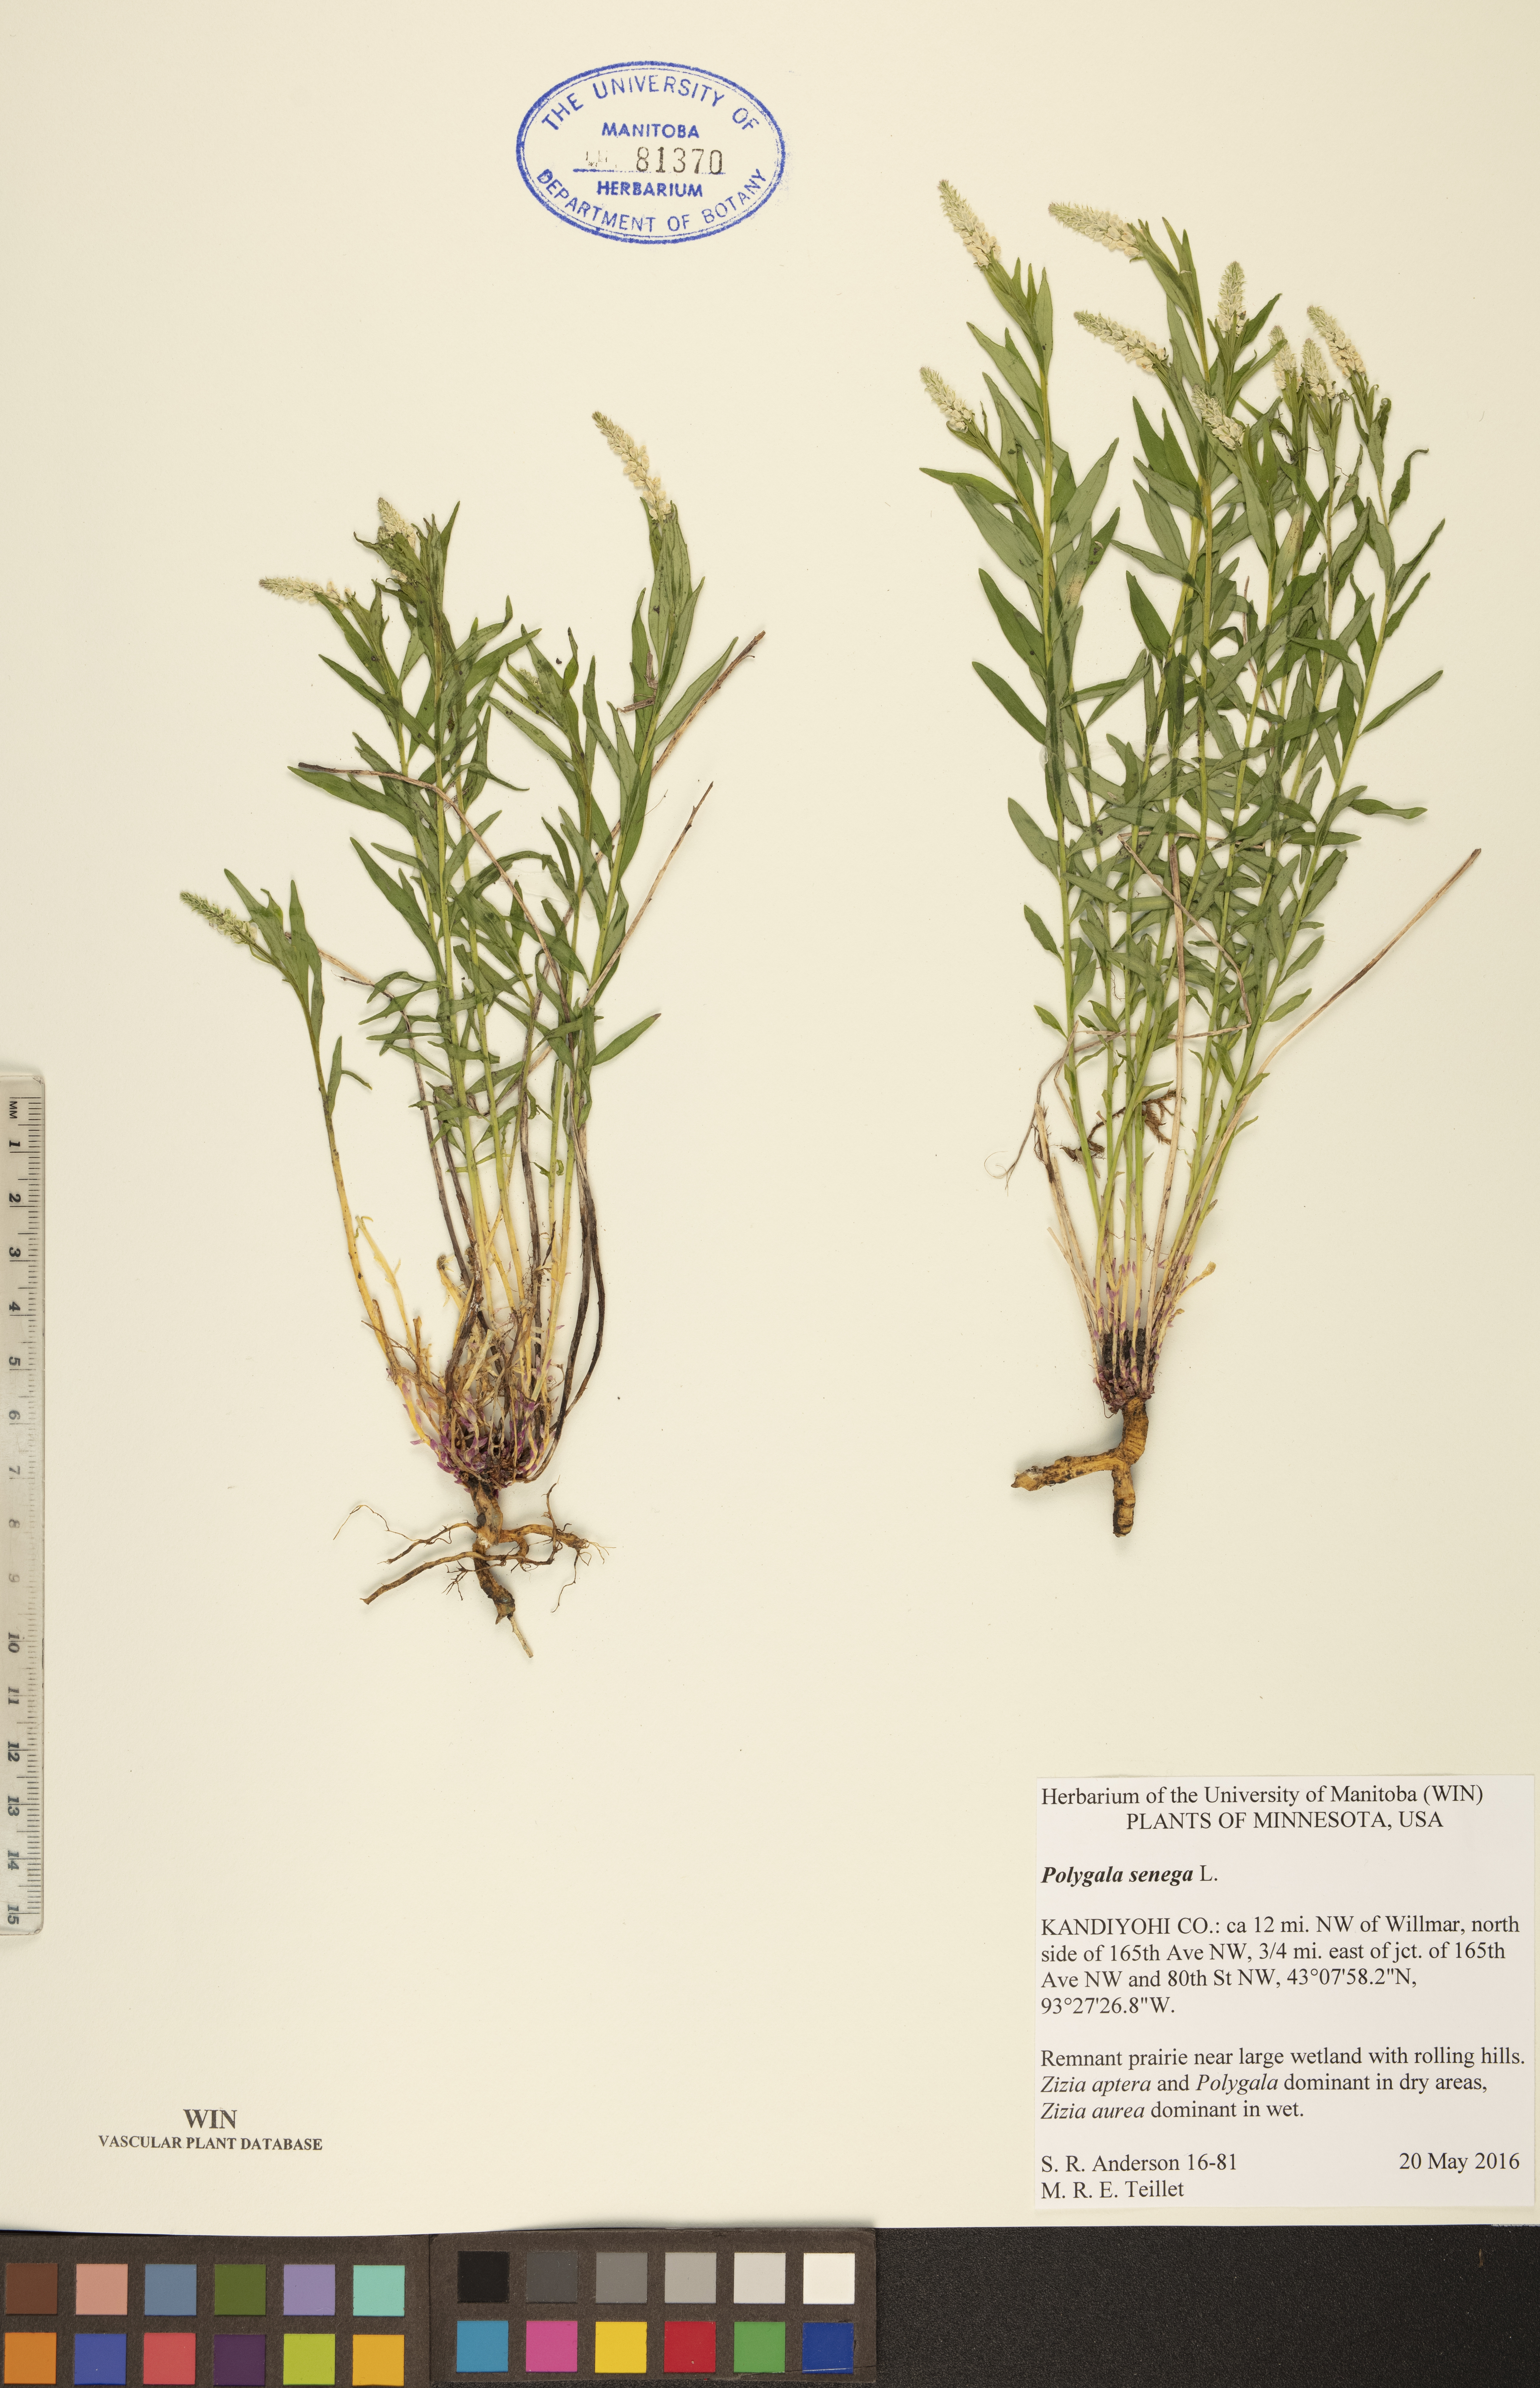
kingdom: Plantae
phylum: Tracheophyta
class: Magnoliopsida
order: Fabales
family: Polygalaceae
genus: Polygala
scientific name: Polygala senega
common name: Seneca snakeroot
